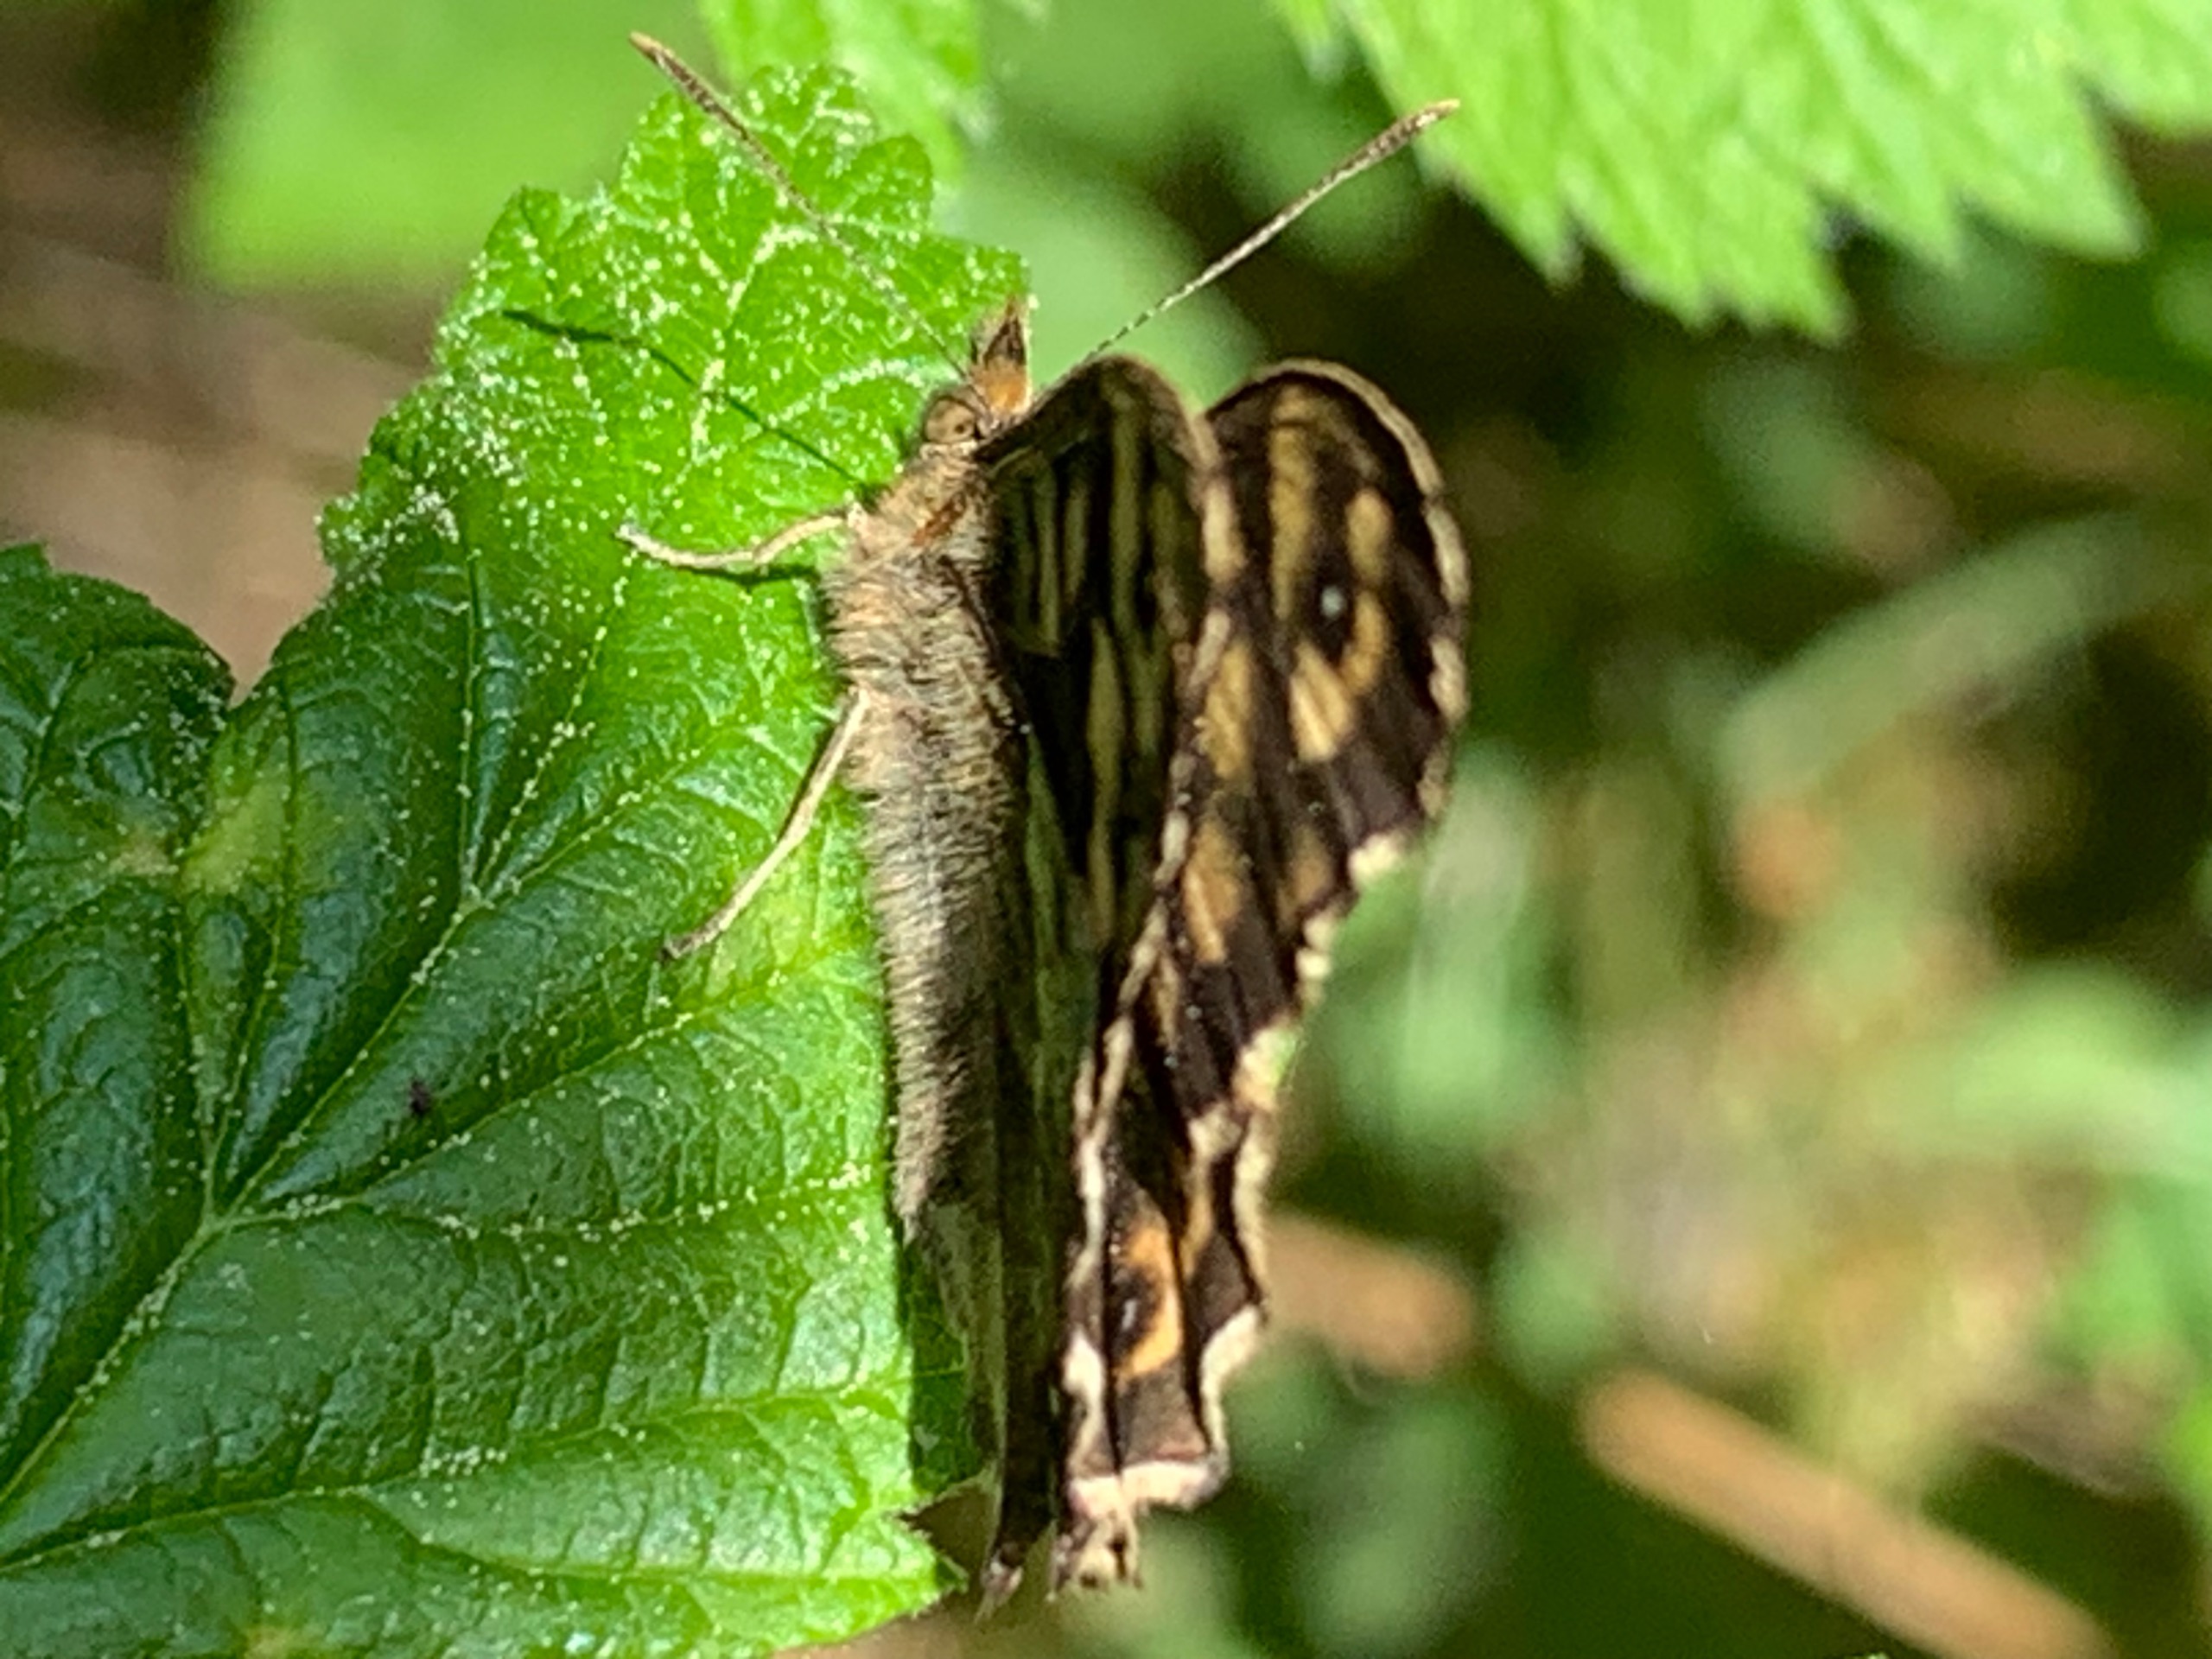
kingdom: Animalia
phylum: Arthropoda
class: Insecta
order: Lepidoptera
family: Nymphalidae
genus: Pararge
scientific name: Pararge aegeria
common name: Skovrandøje
